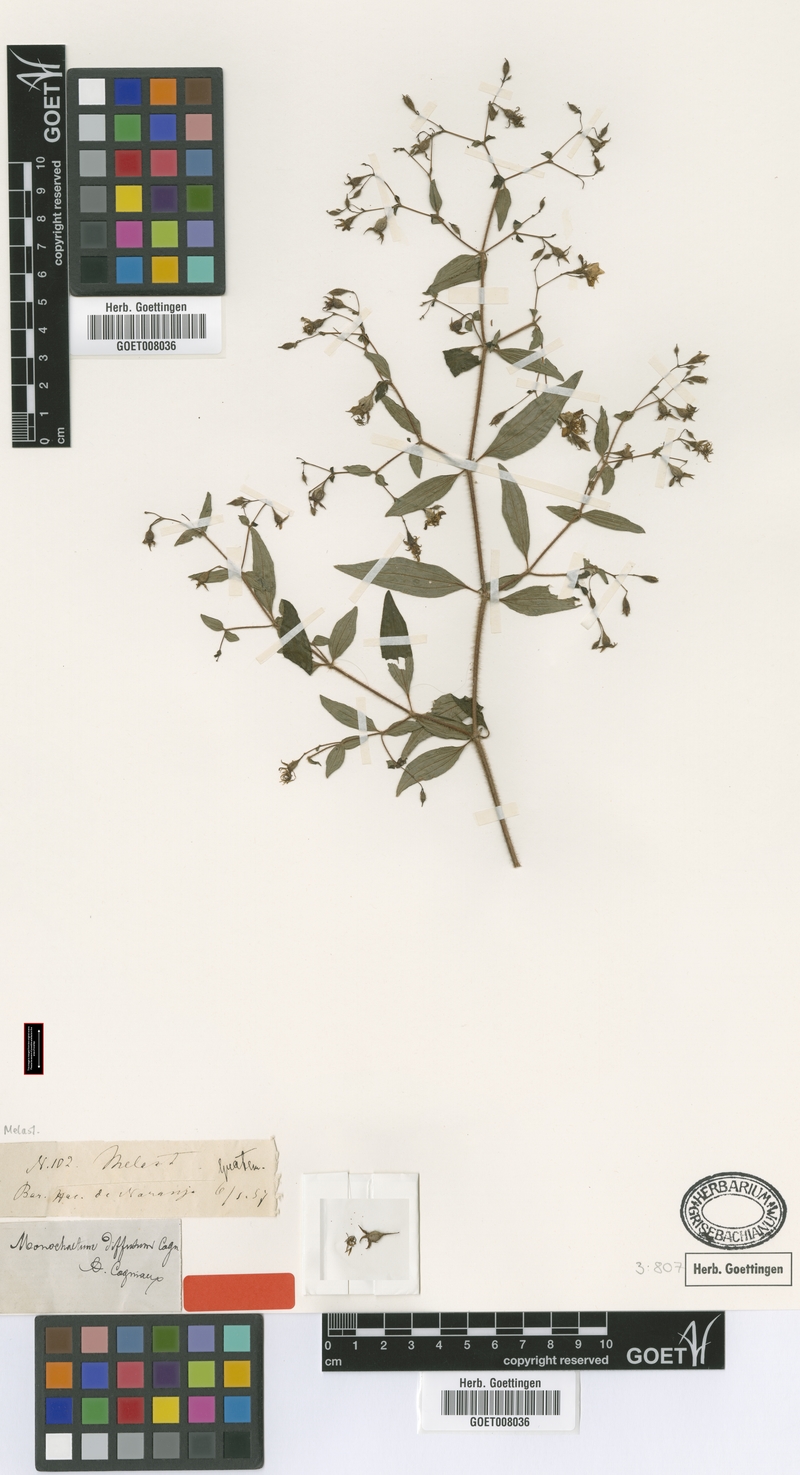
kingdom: Plantae
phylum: Tracheophyta
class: Magnoliopsida
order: Myrtales
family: Melastomataceae
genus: Monochaetum
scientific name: Monochaetum floribundum
